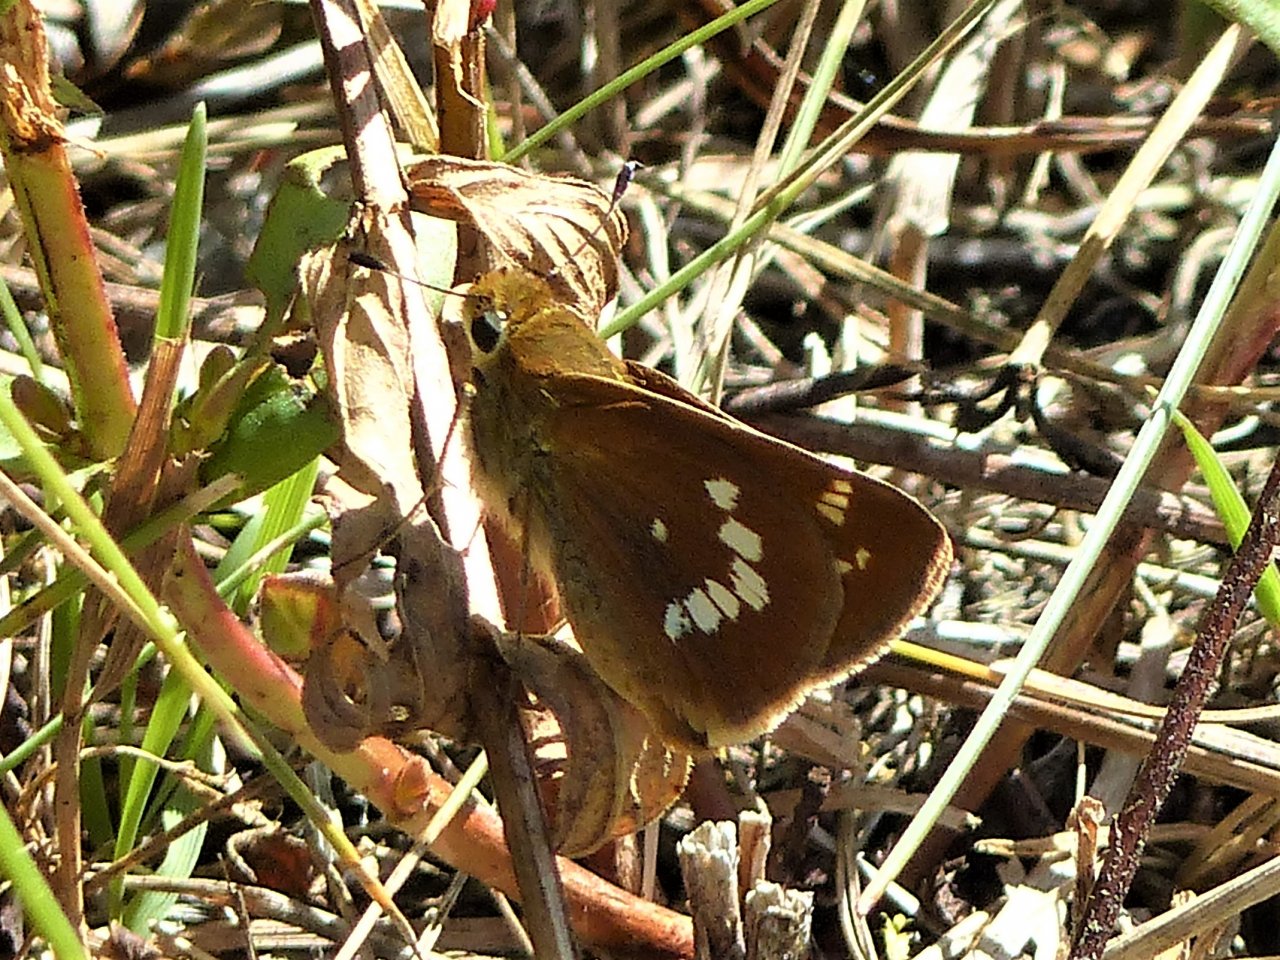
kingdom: Animalia
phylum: Arthropoda
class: Insecta
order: Lepidoptera
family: Hesperiidae
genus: Hesperia
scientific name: Hesperia leonardus
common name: Leonard's Skipper
